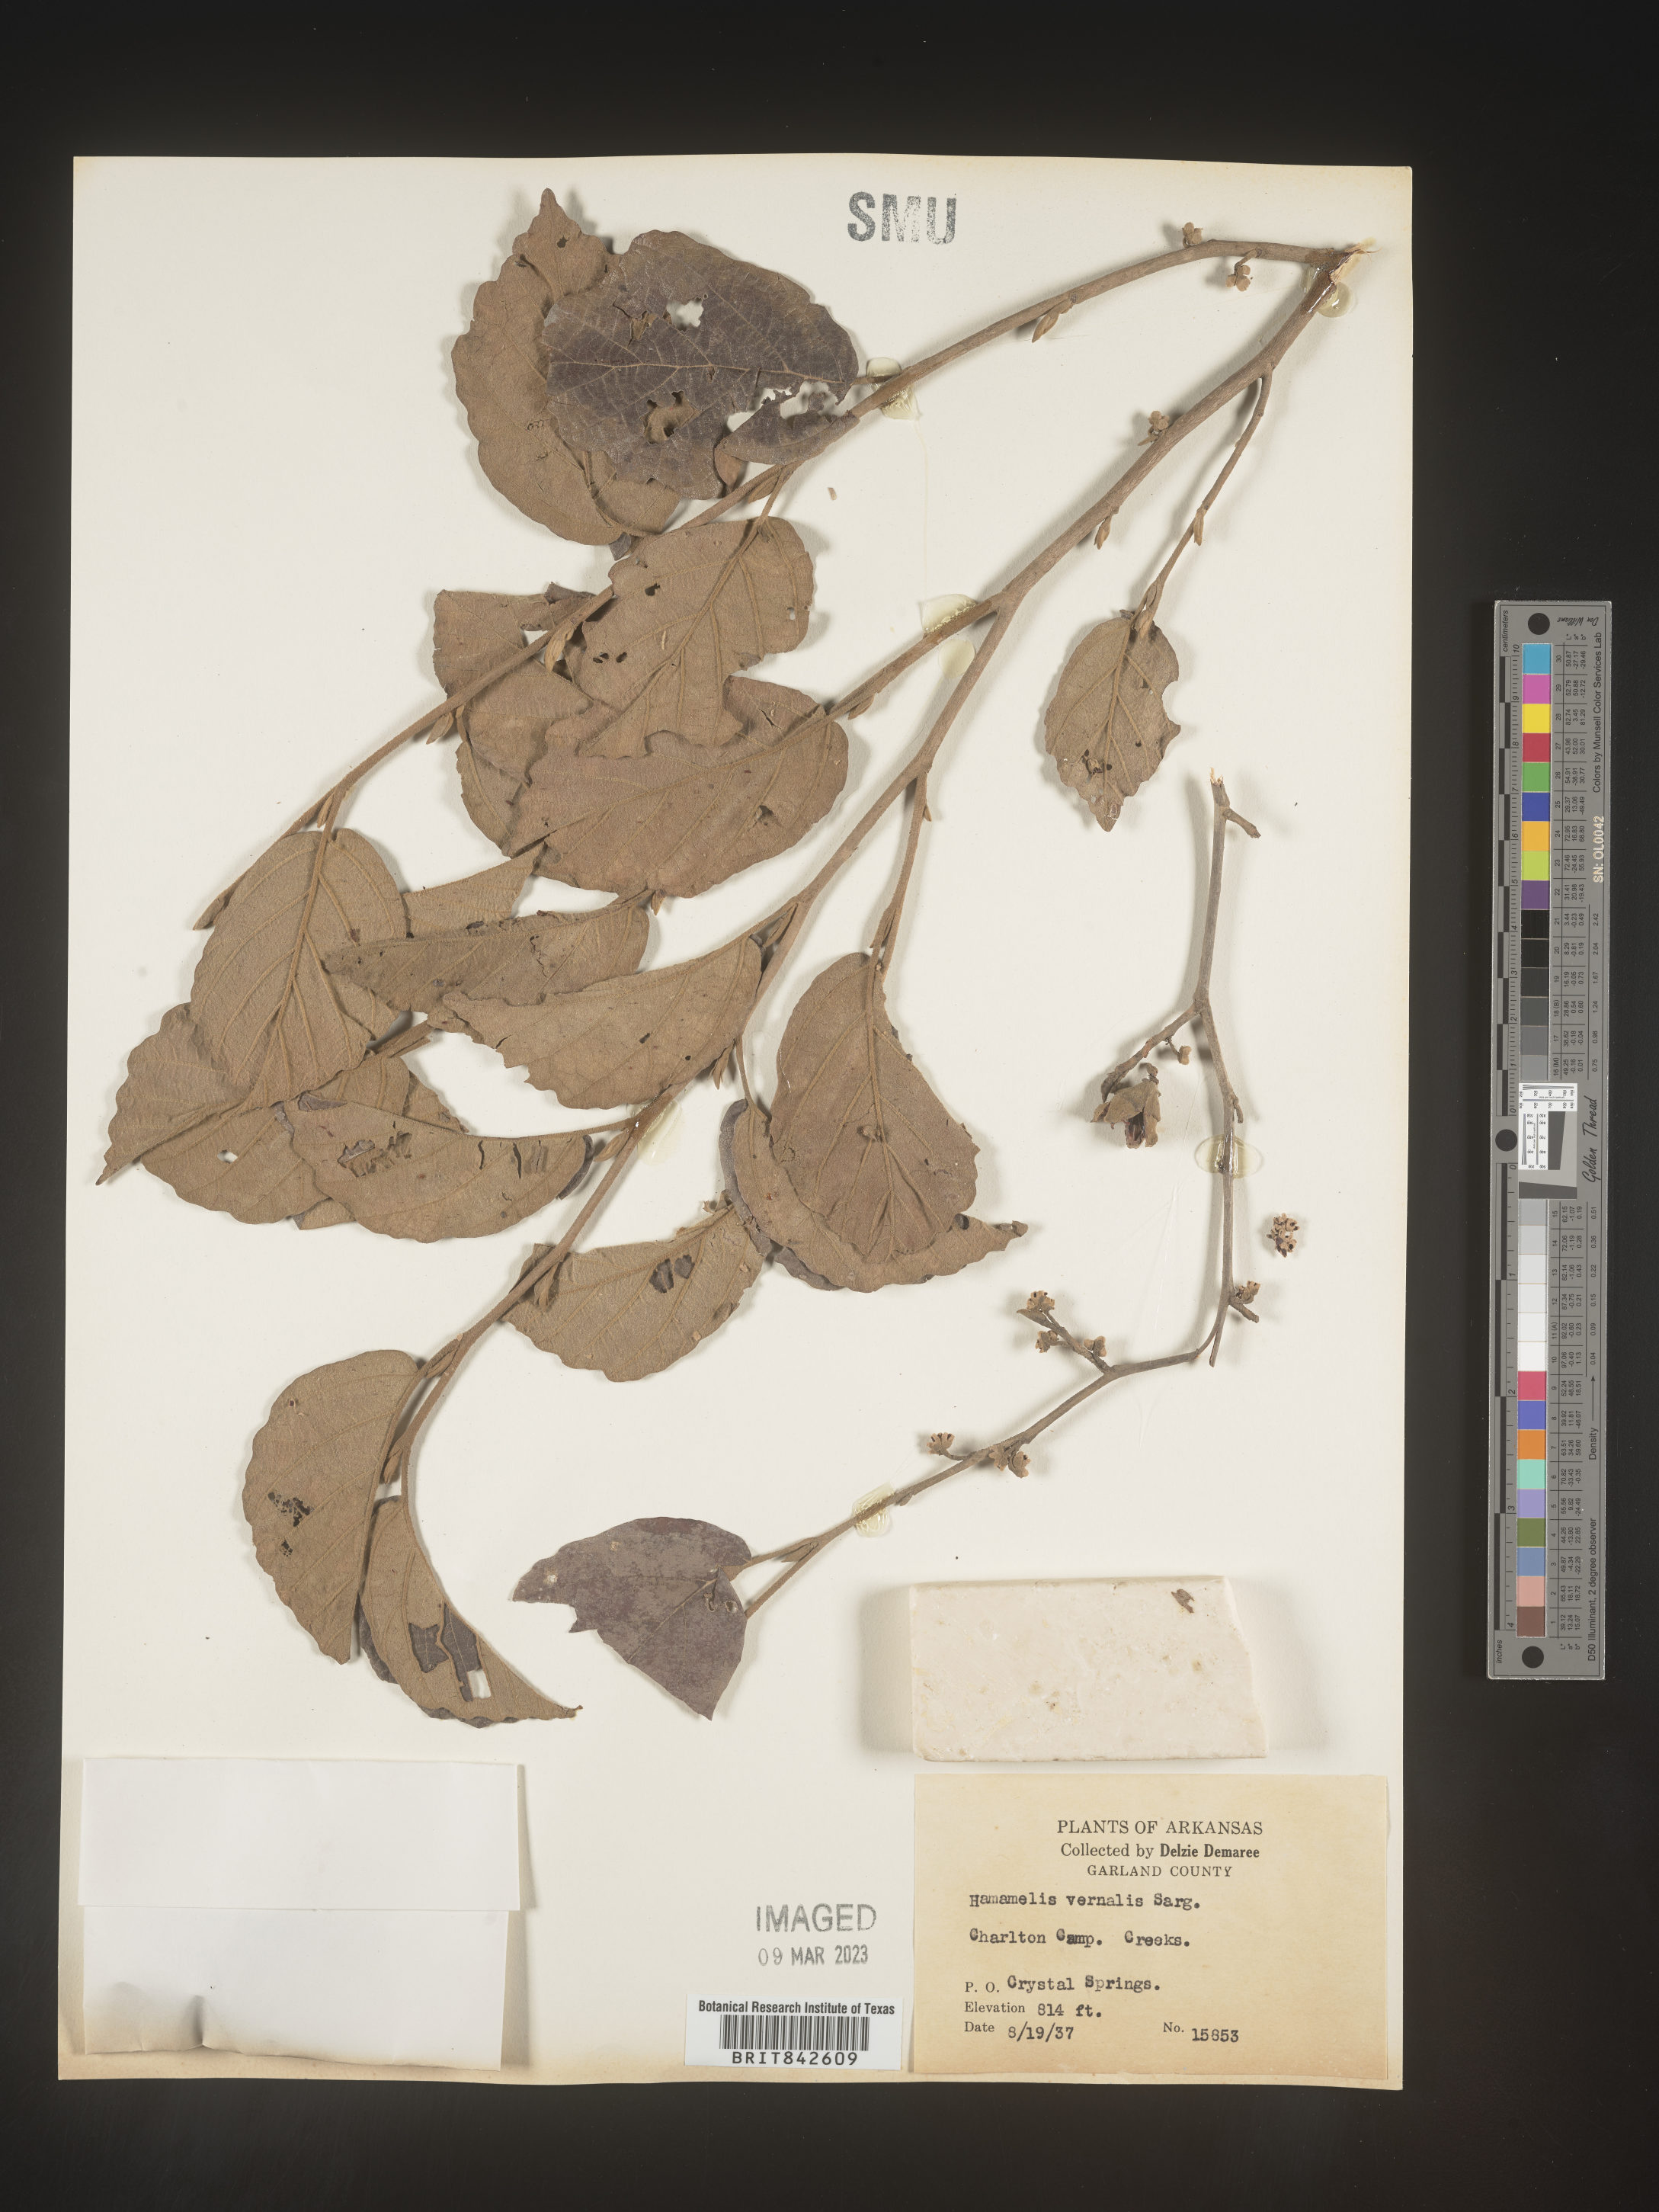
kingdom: Plantae
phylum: Tracheophyta
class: Magnoliopsida
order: Saxifragales
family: Hamamelidaceae
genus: Hamamelis
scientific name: Hamamelis vernalis
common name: Ozark witch-hazel
